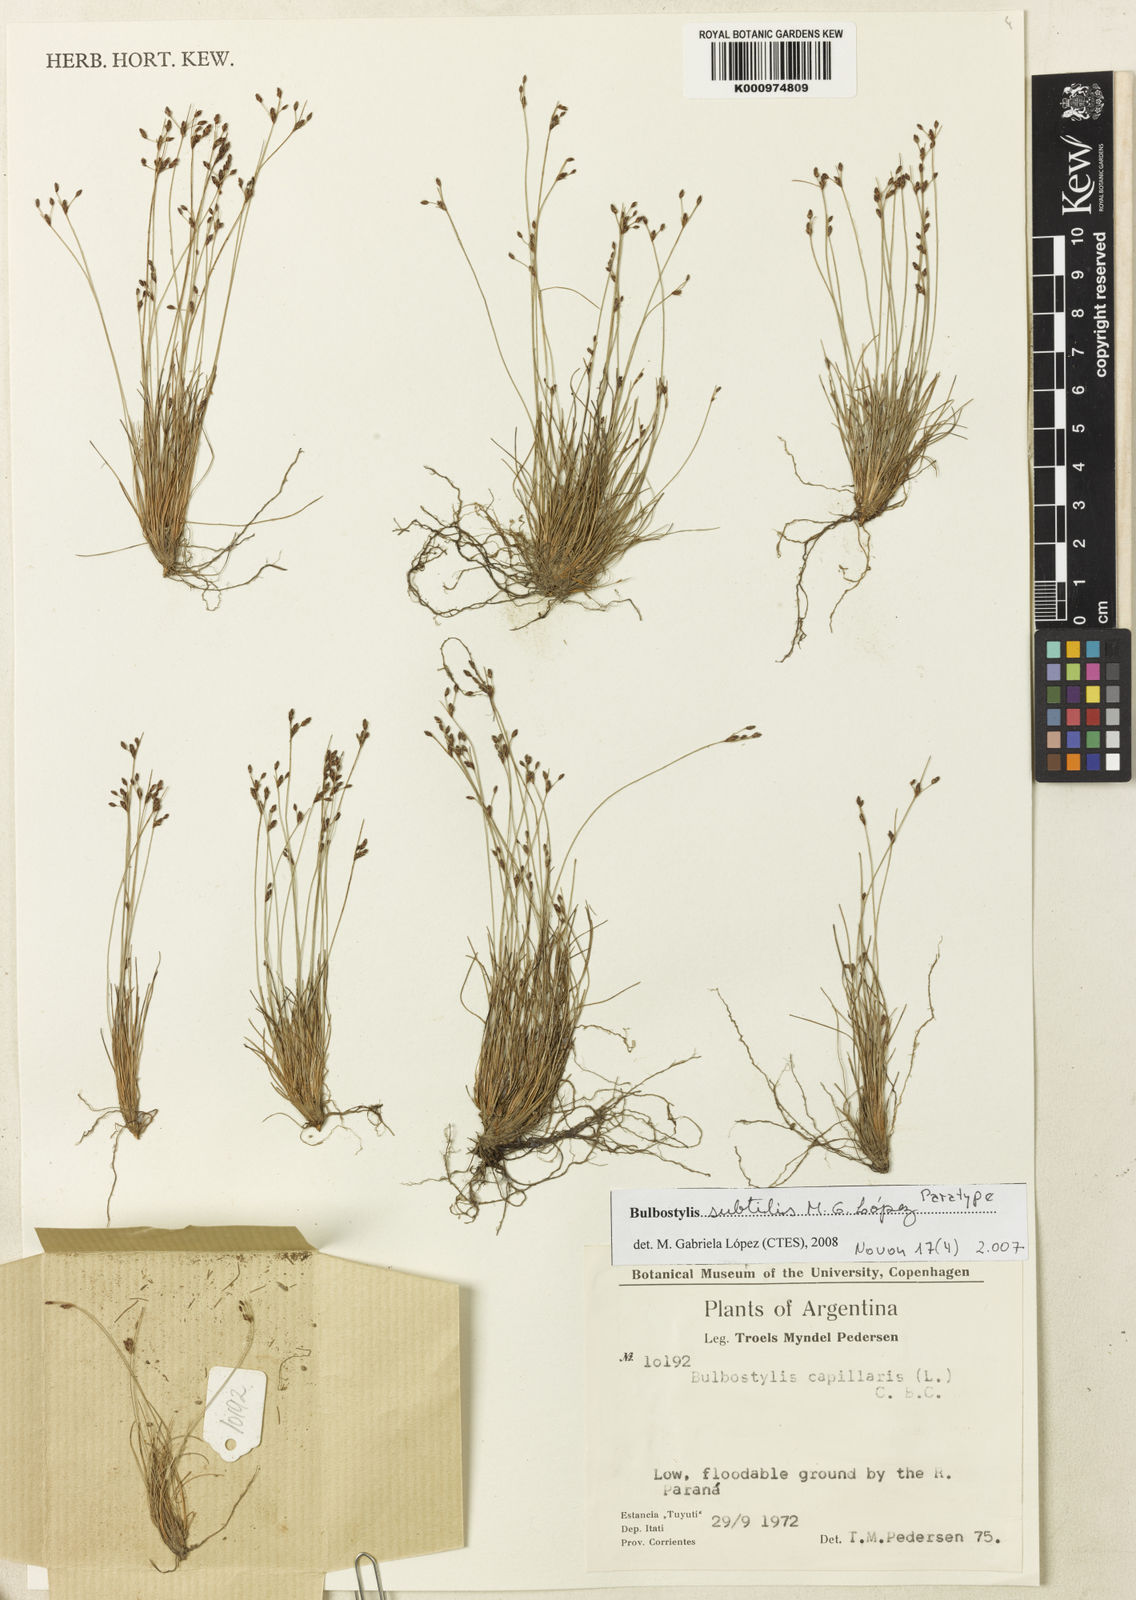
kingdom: Plantae
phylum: Tracheophyta
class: Liliopsida
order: Poales
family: Cyperaceae
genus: Bulbostylis
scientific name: Bulbostylis
